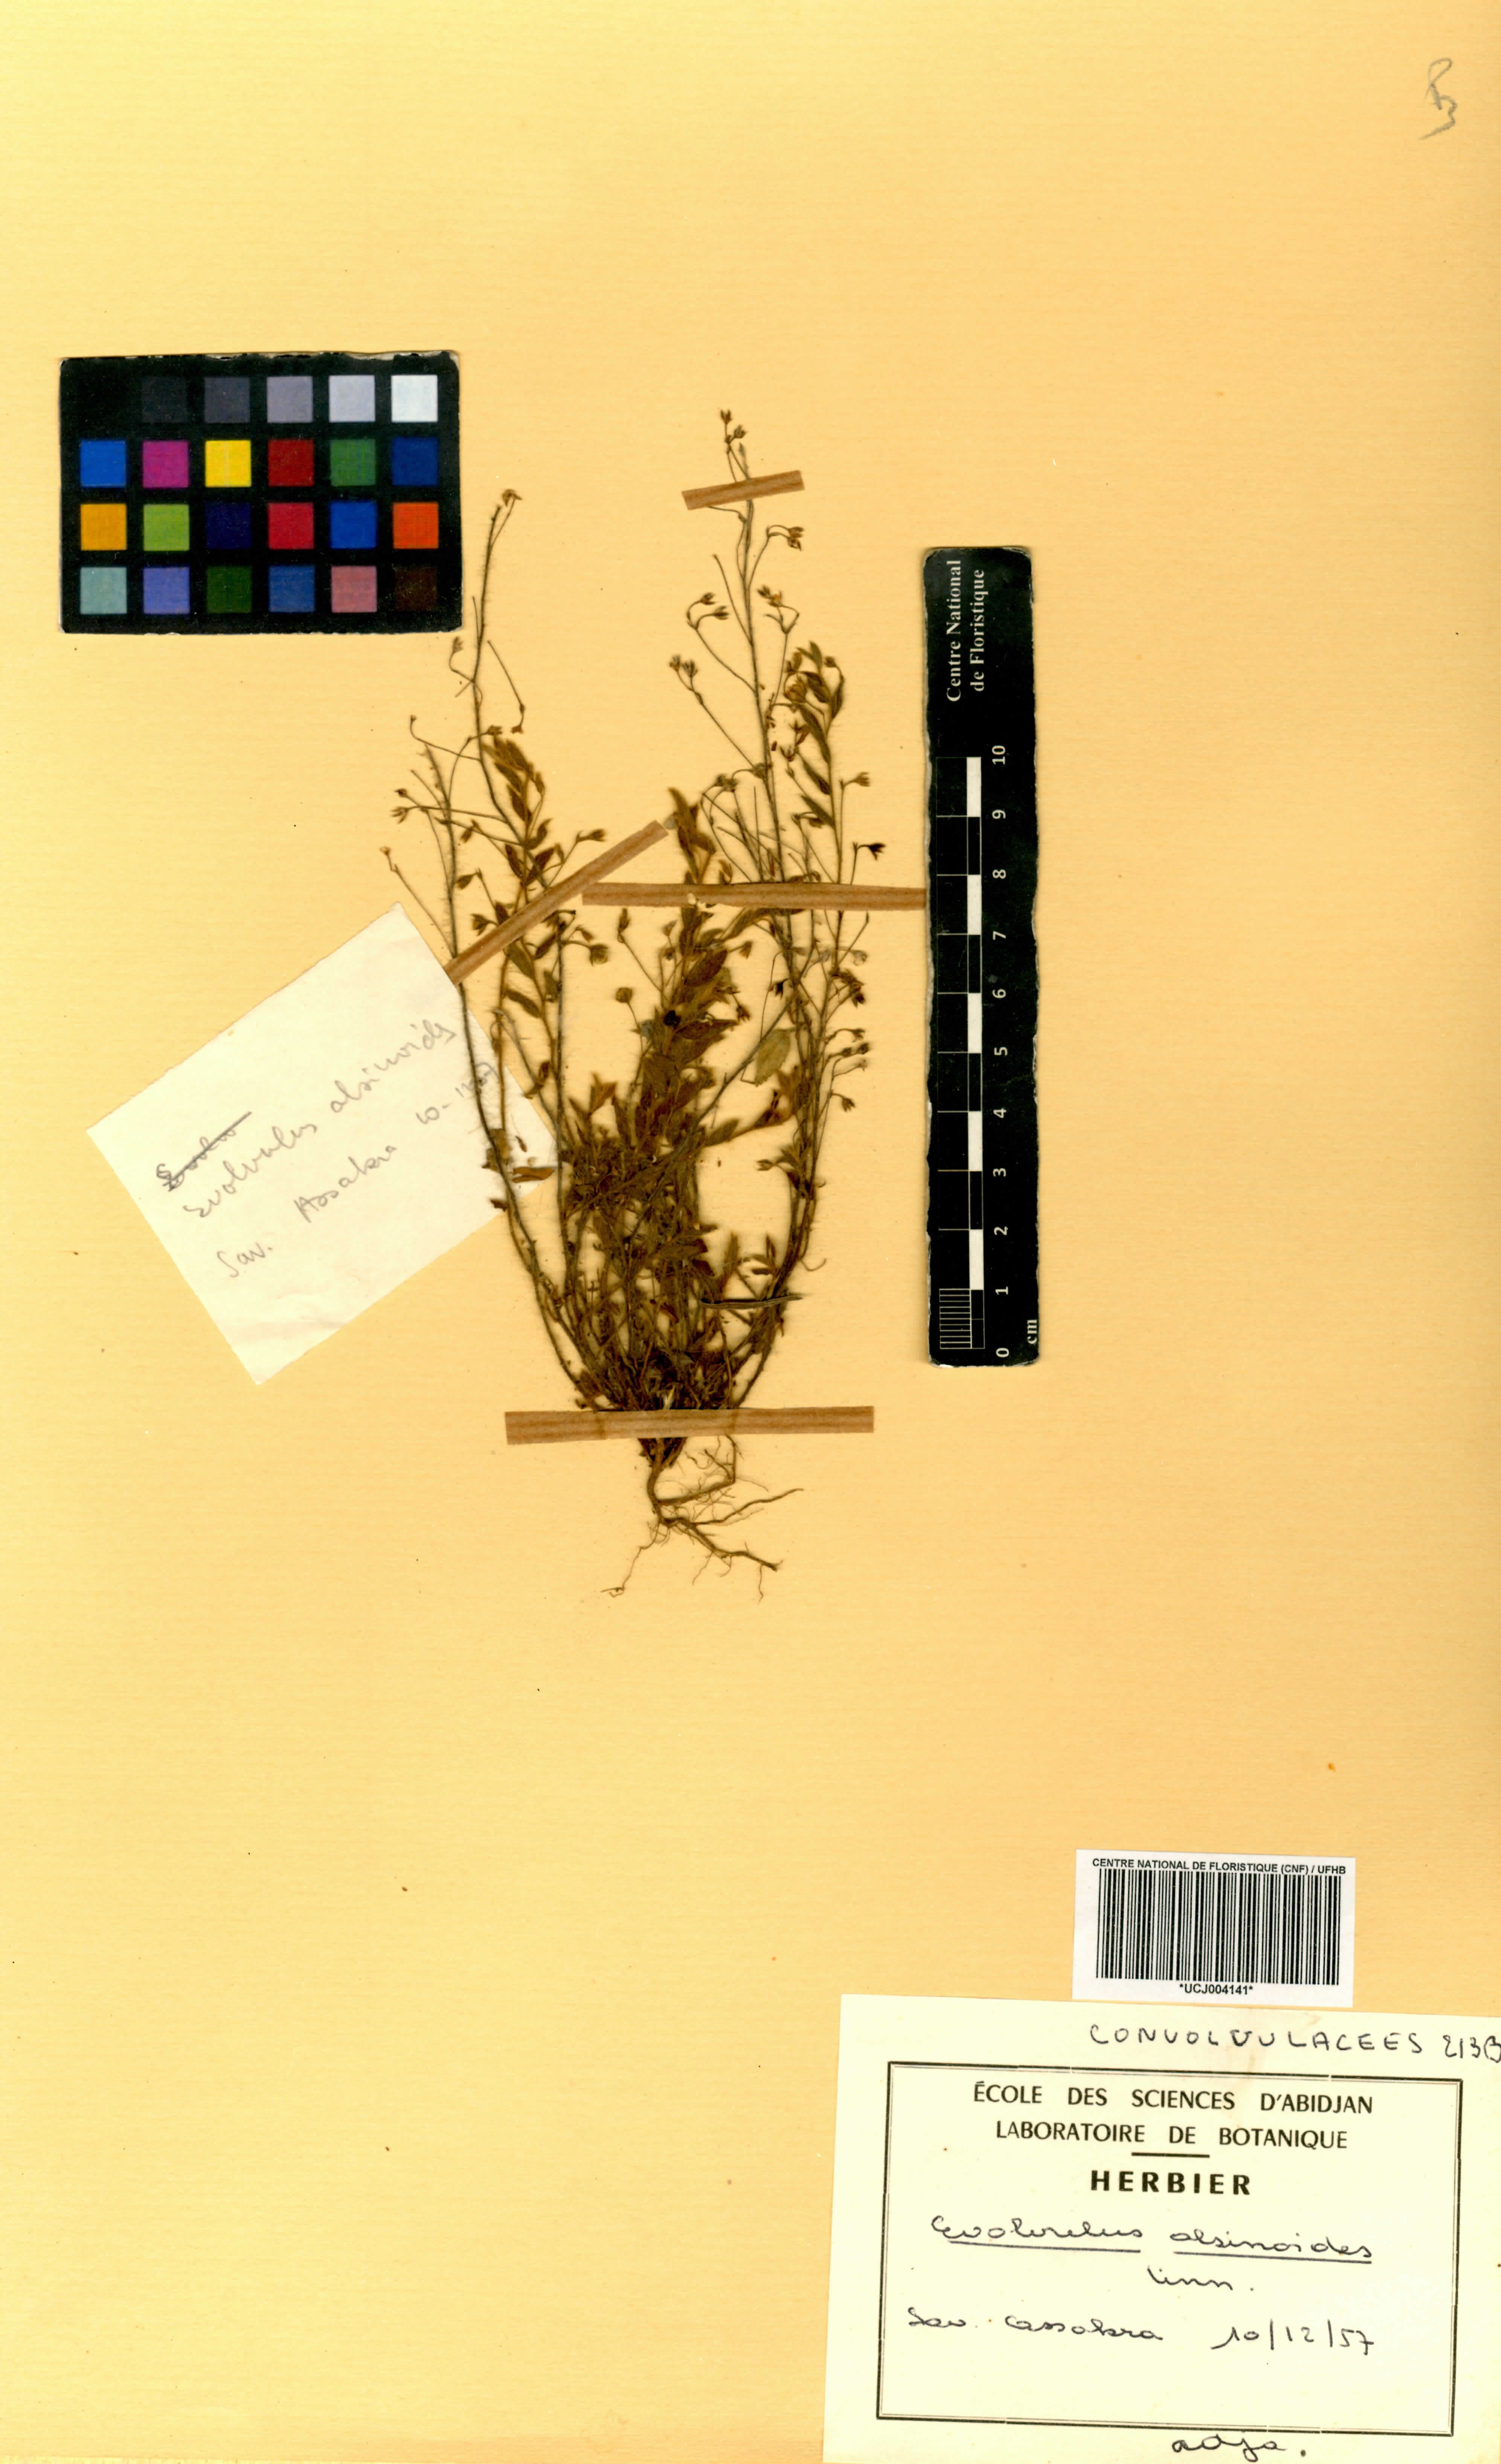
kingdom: Plantae
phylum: Tracheophyta
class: Magnoliopsida
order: Solanales
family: Convolvulaceae
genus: Evolvulus
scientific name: Evolvulus alsinoides
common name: Slender dwarf morning-glory
